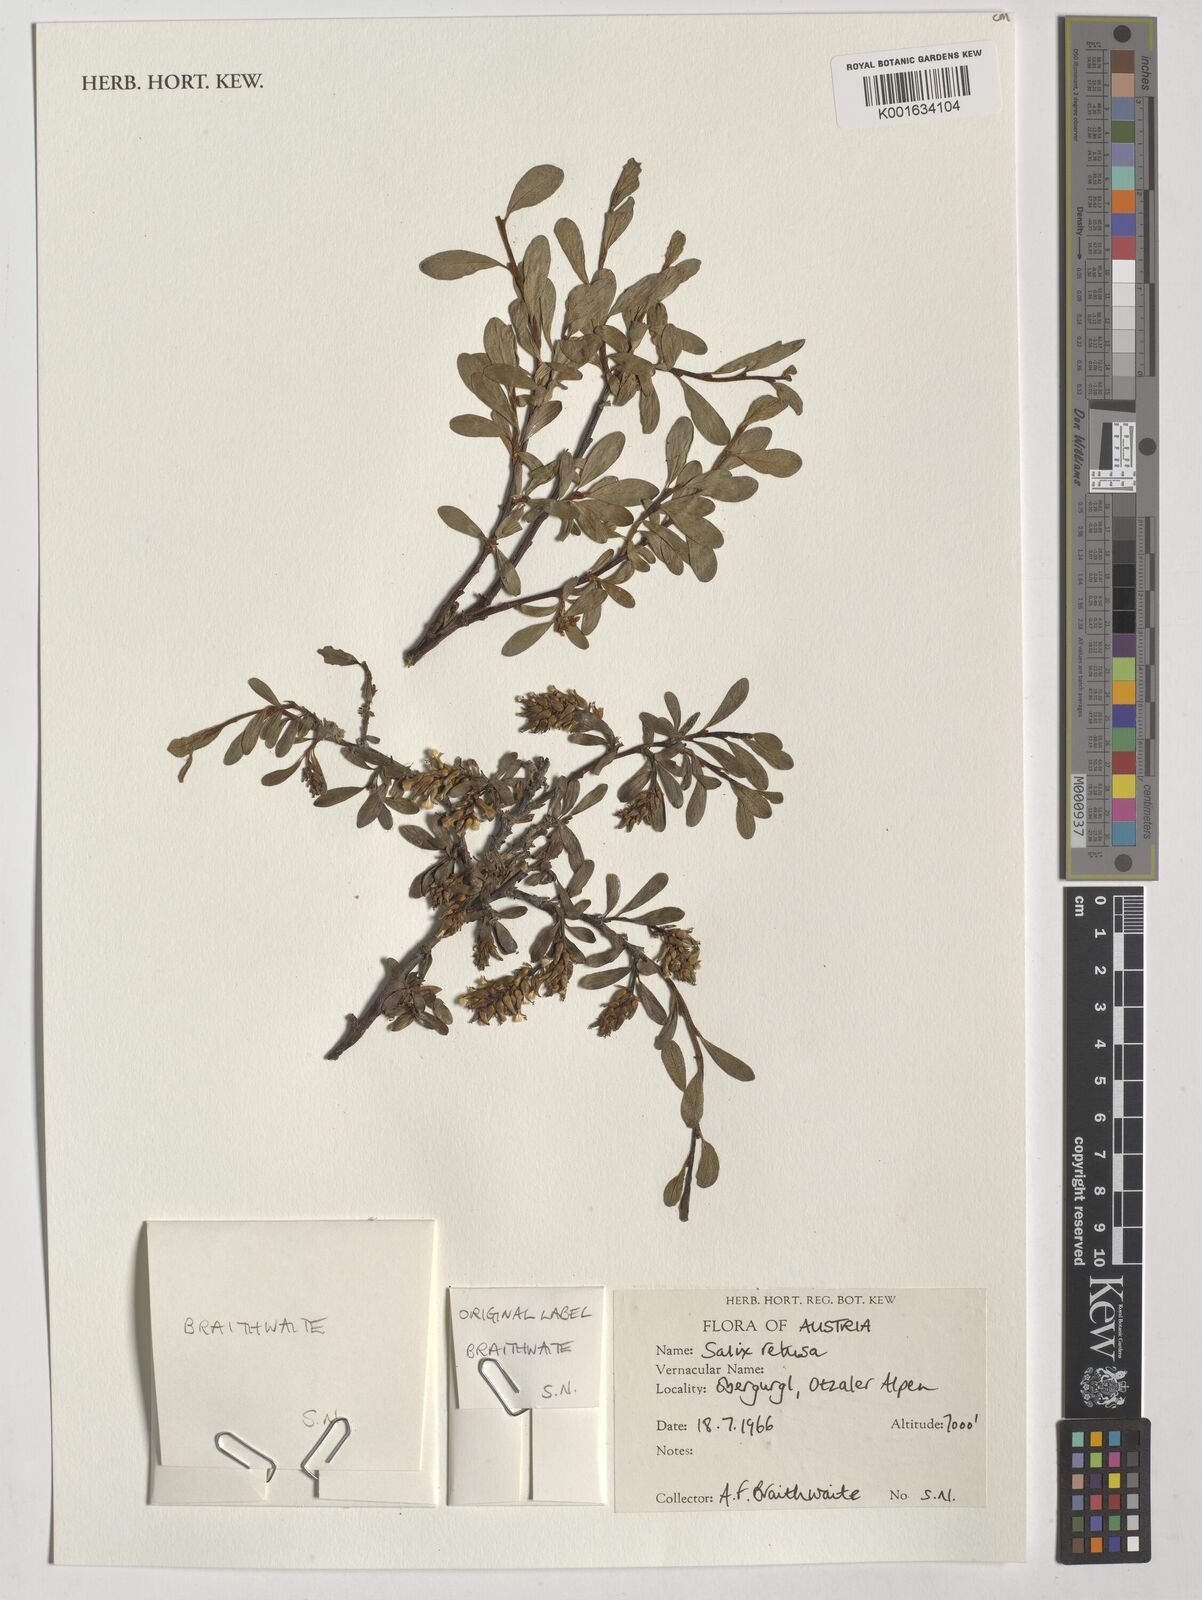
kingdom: Plantae
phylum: Tracheophyta
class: Magnoliopsida
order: Malpighiales
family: Salicaceae
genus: Salix
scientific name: Salix retusa
